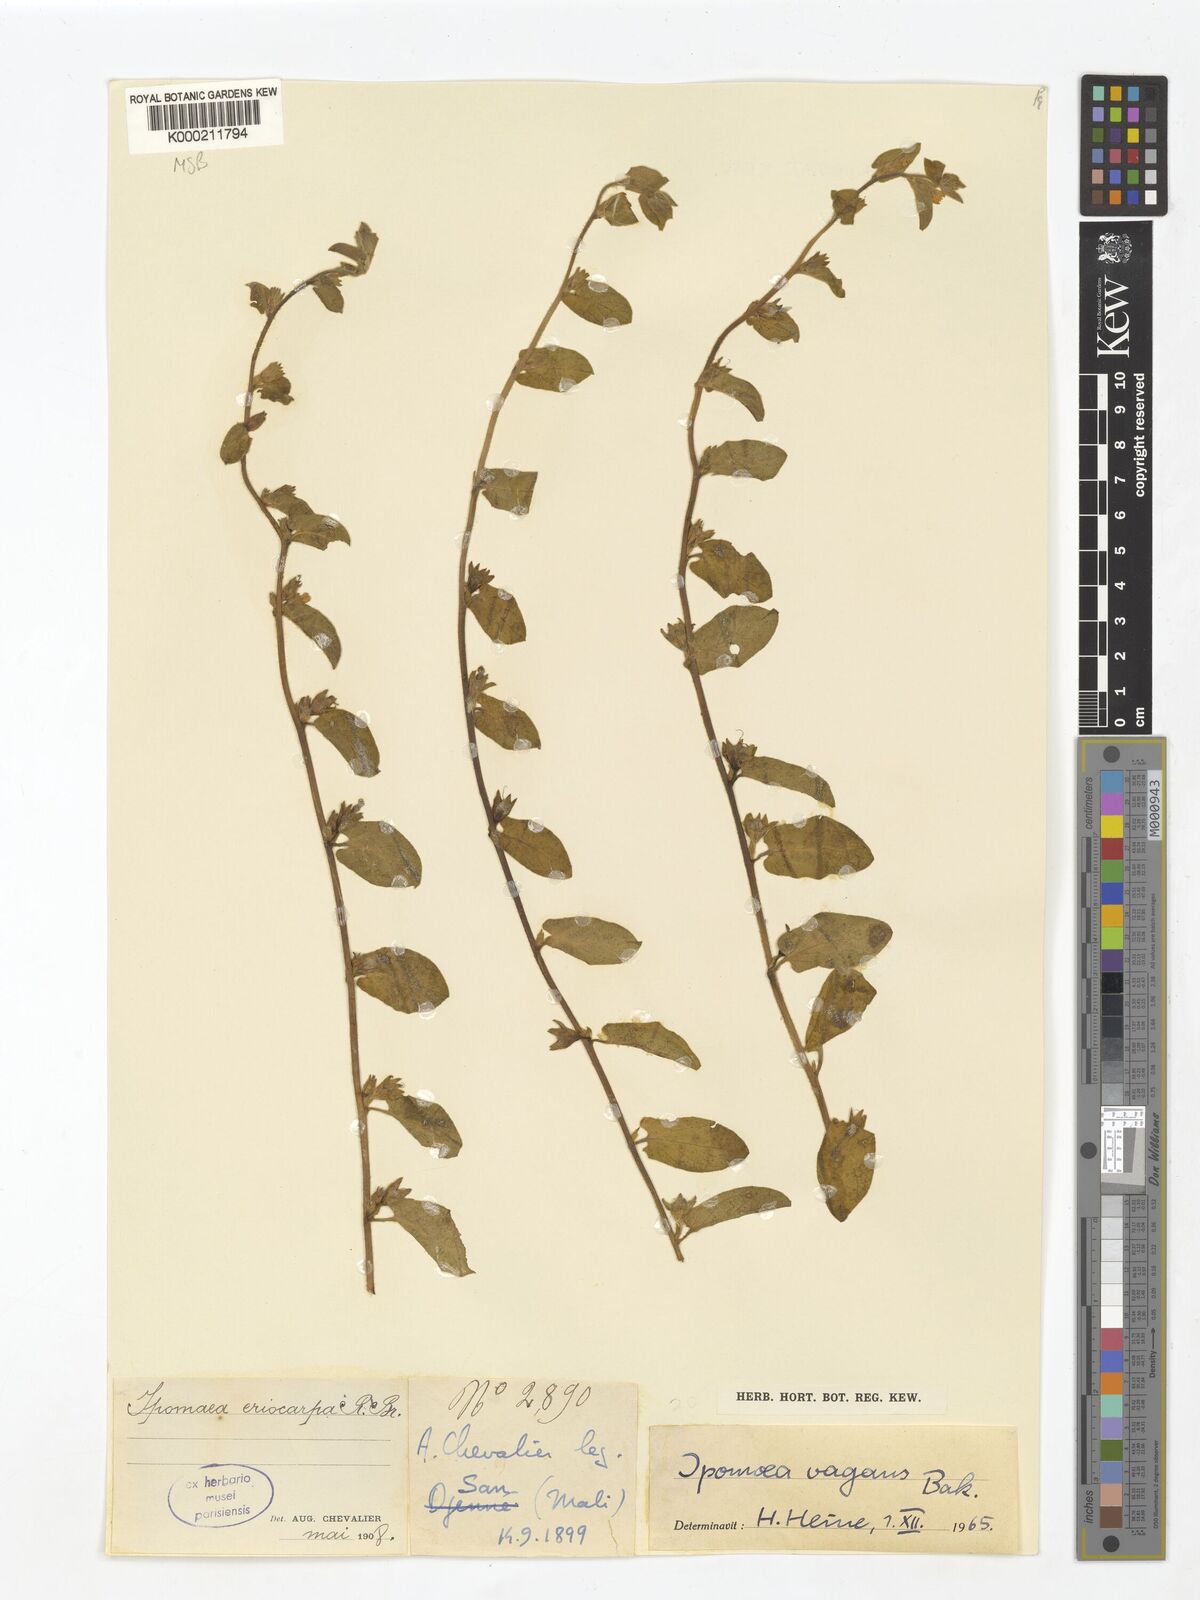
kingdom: Plantae
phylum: Tracheophyta
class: Magnoliopsida
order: Solanales
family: Convolvulaceae
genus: Ipomoea
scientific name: Ipomoea vagans
